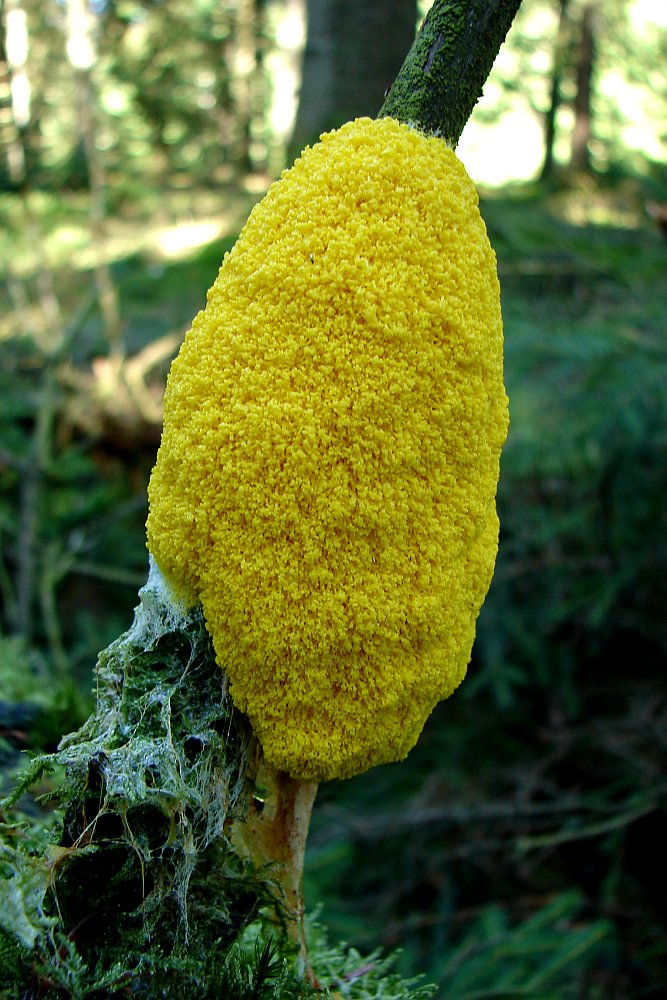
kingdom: Protozoa
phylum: Mycetozoa
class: Myxomycetes
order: Physarales
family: Physaraceae
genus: Fuligo
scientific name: Fuligo septica
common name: gul troldsmør
